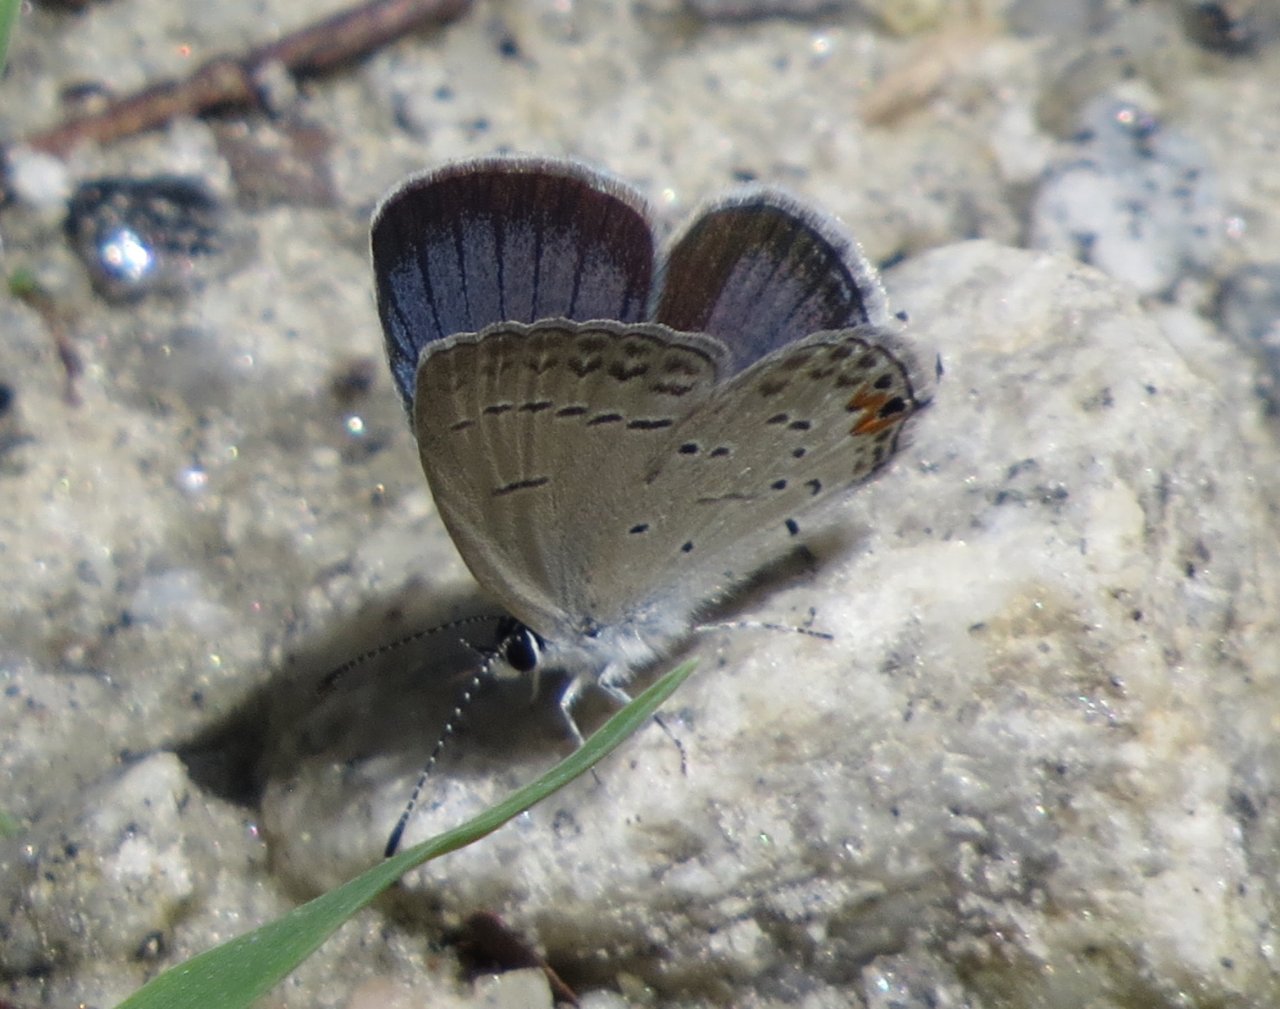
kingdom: Animalia
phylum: Arthropoda
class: Insecta
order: Lepidoptera
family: Lycaenidae
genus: Elkalyce
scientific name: Elkalyce comyntas
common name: Eastern Tailed-Blue
